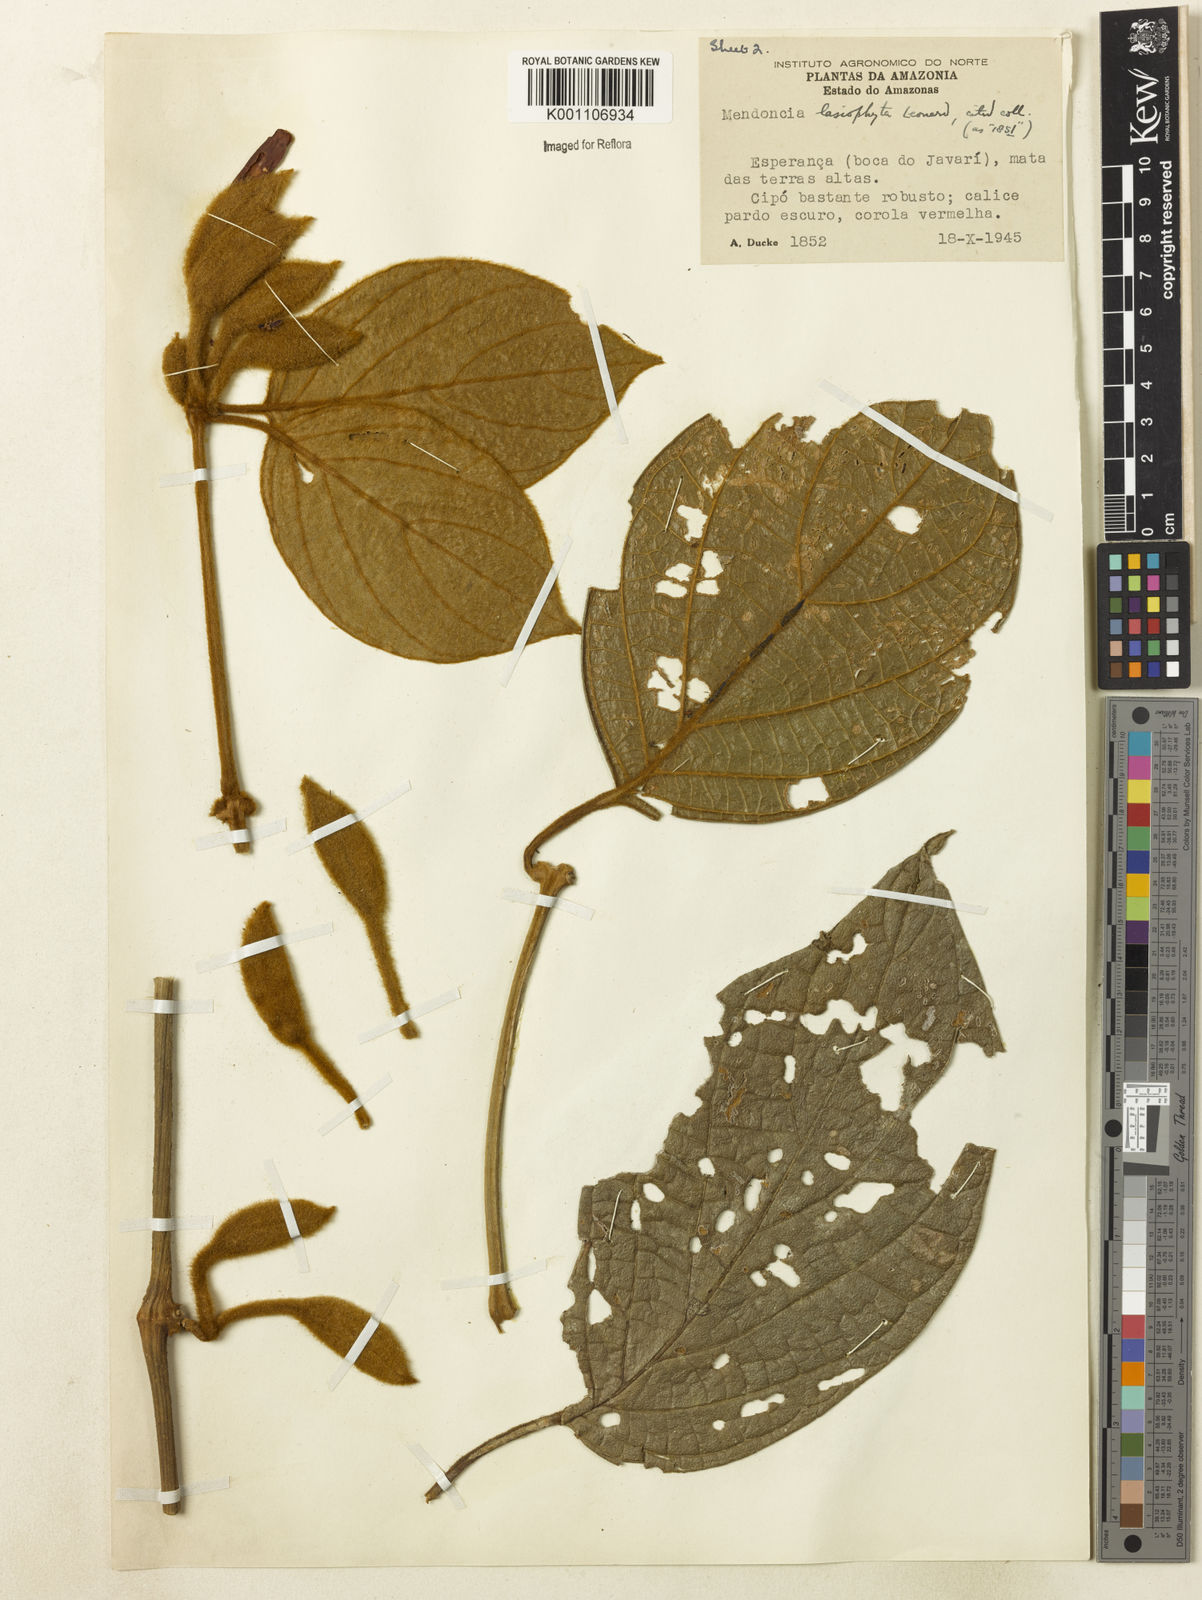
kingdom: Plantae
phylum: Tracheophyta
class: Magnoliopsida
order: Lamiales
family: Acanthaceae
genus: Mendoncia
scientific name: Mendoncia lasiophyta
